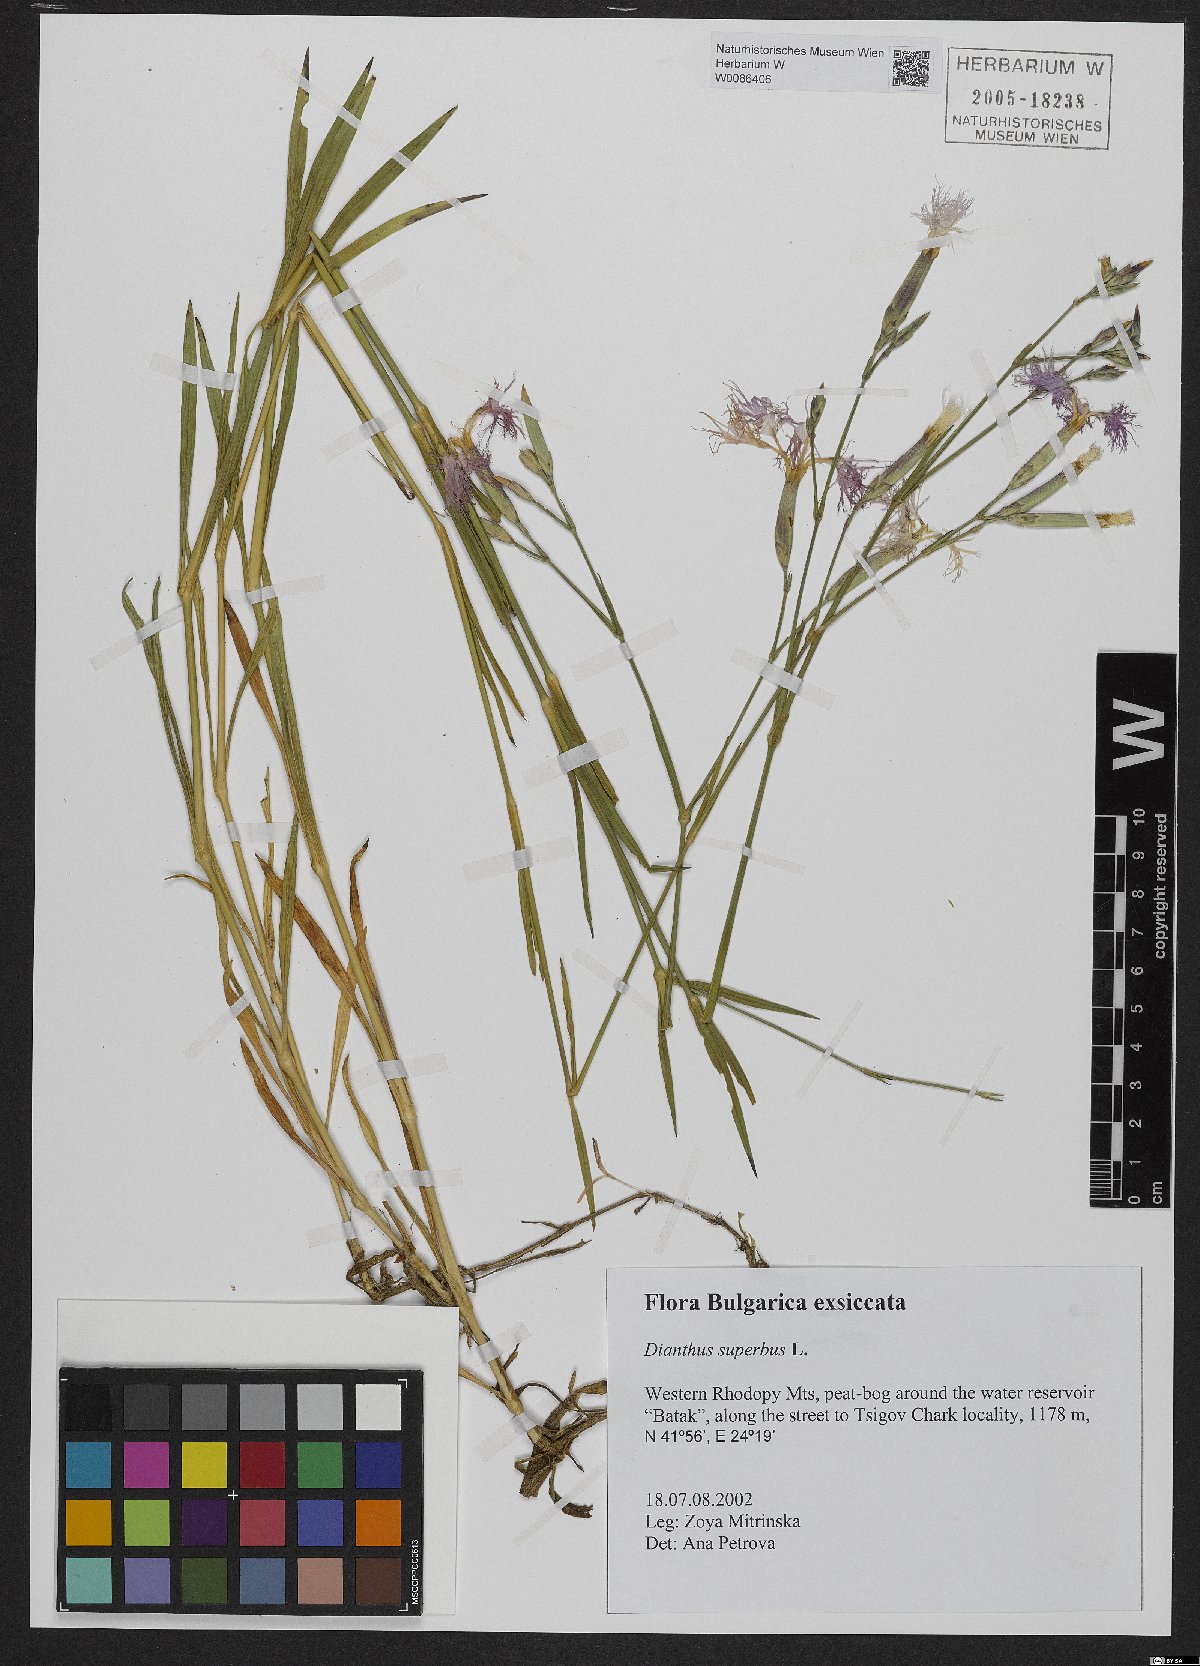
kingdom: Plantae
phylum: Tracheophyta
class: Magnoliopsida
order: Caryophyllales
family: Caryophyllaceae
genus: Dianthus
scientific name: Dianthus superbus
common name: Fringed pink
